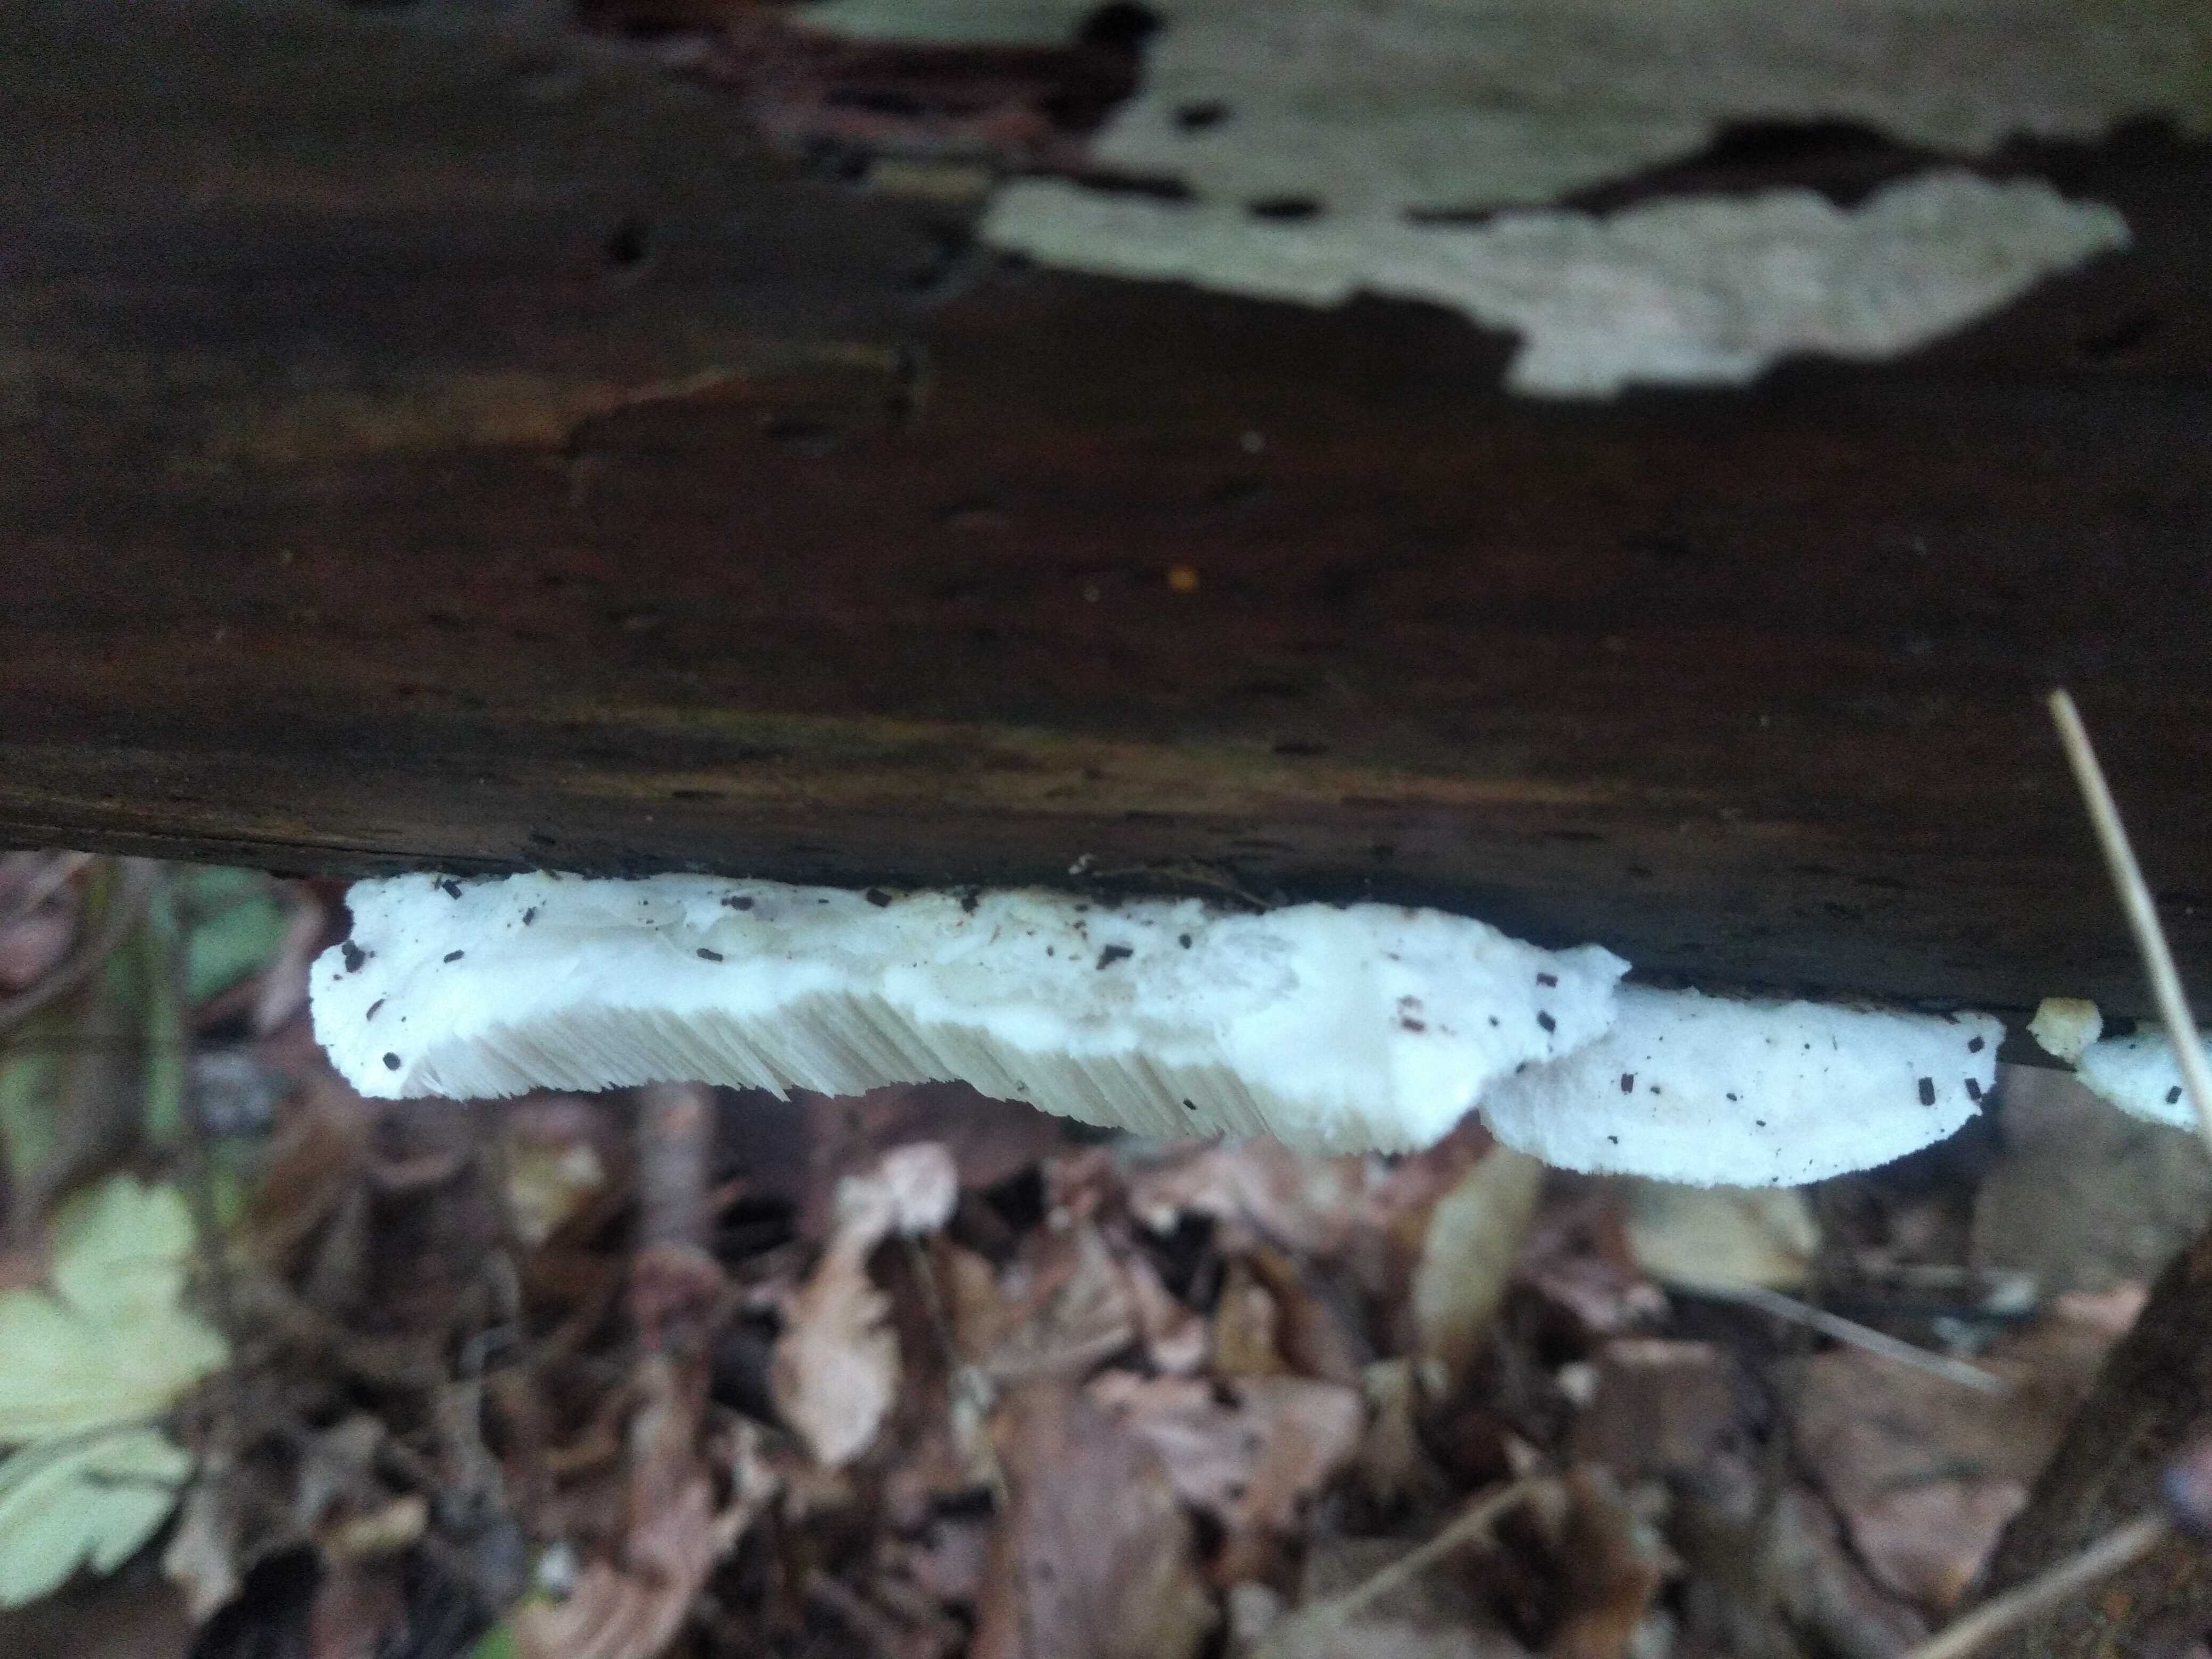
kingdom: Fungi
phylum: Basidiomycota
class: Agaricomycetes
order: Polyporales
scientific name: Polyporales
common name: poresvampordenen
